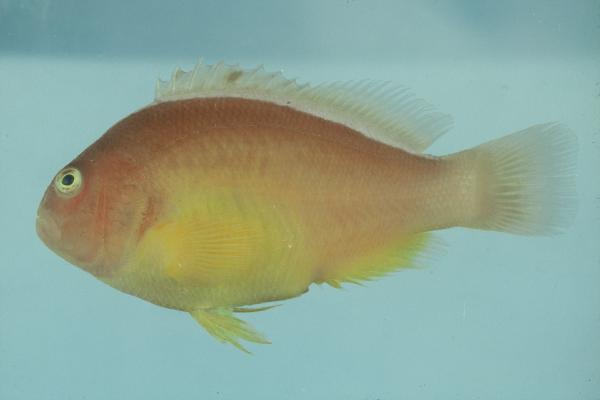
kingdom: Animalia
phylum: Chordata
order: Perciformes
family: Pomacentridae
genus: Amphiprion
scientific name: Amphiprion akallopisos
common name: Skunk clownfish
